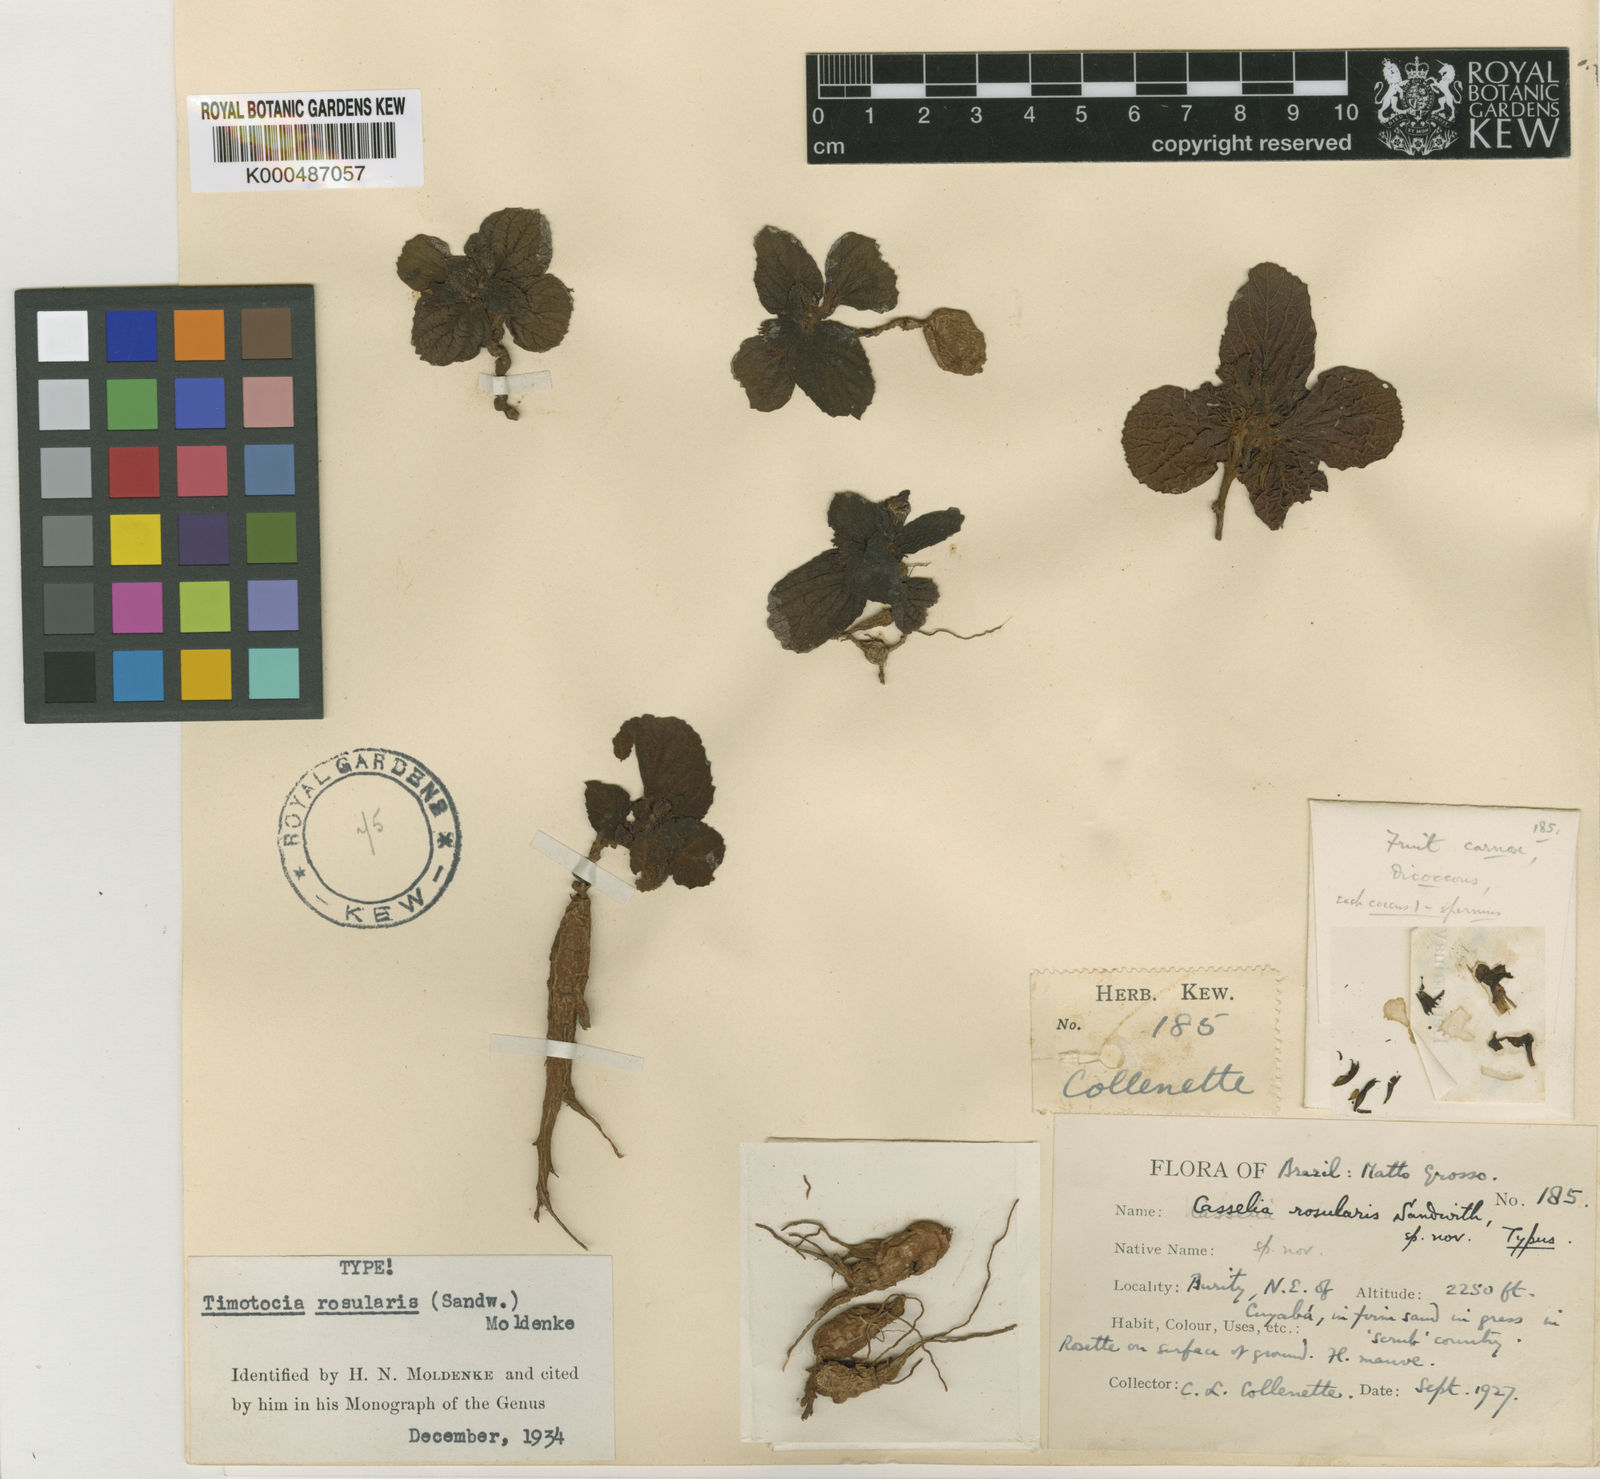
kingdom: Plantae
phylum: Tracheophyta
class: Magnoliopsida
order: Lamiales
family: Verbenaceae
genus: Casselia
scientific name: Casselia rosularis
